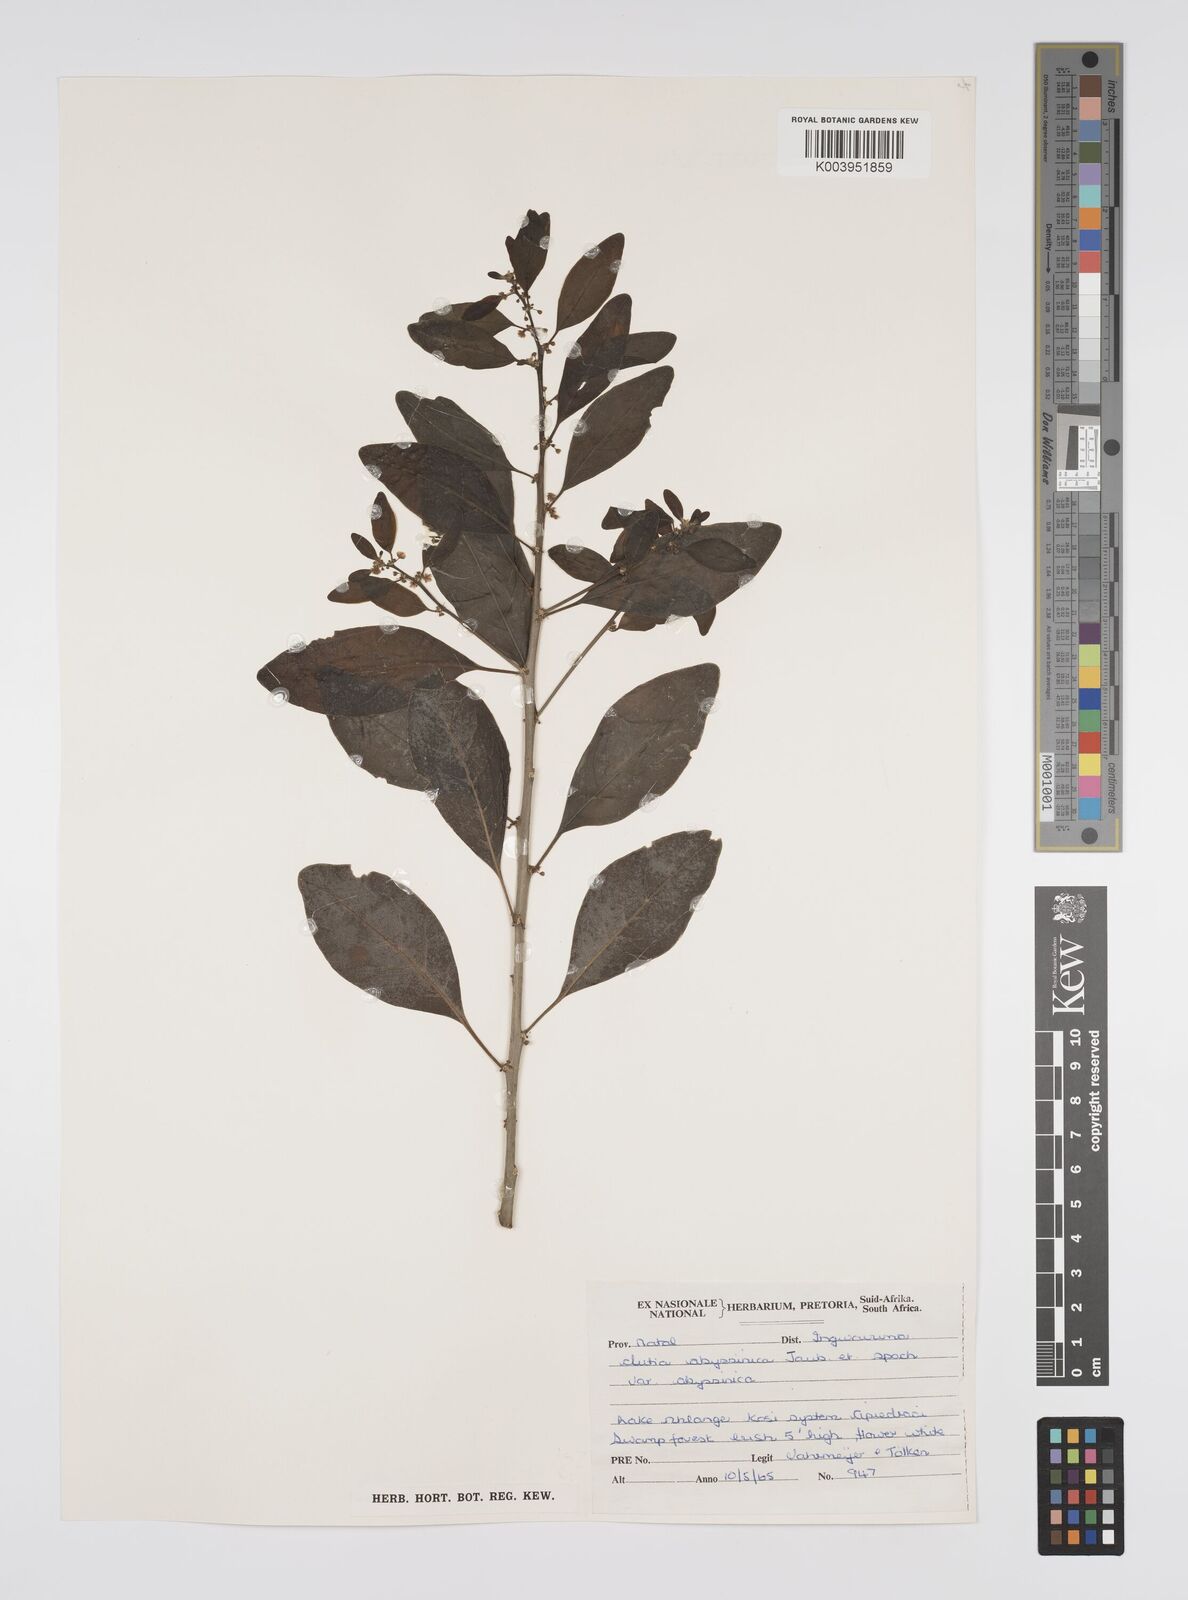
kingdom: Plantae
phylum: Tracheophyta
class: Magnoliopsida
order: Malpighiales
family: Peraceae
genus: Clutia
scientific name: Clutia abyssinica
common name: Large lightning bush
